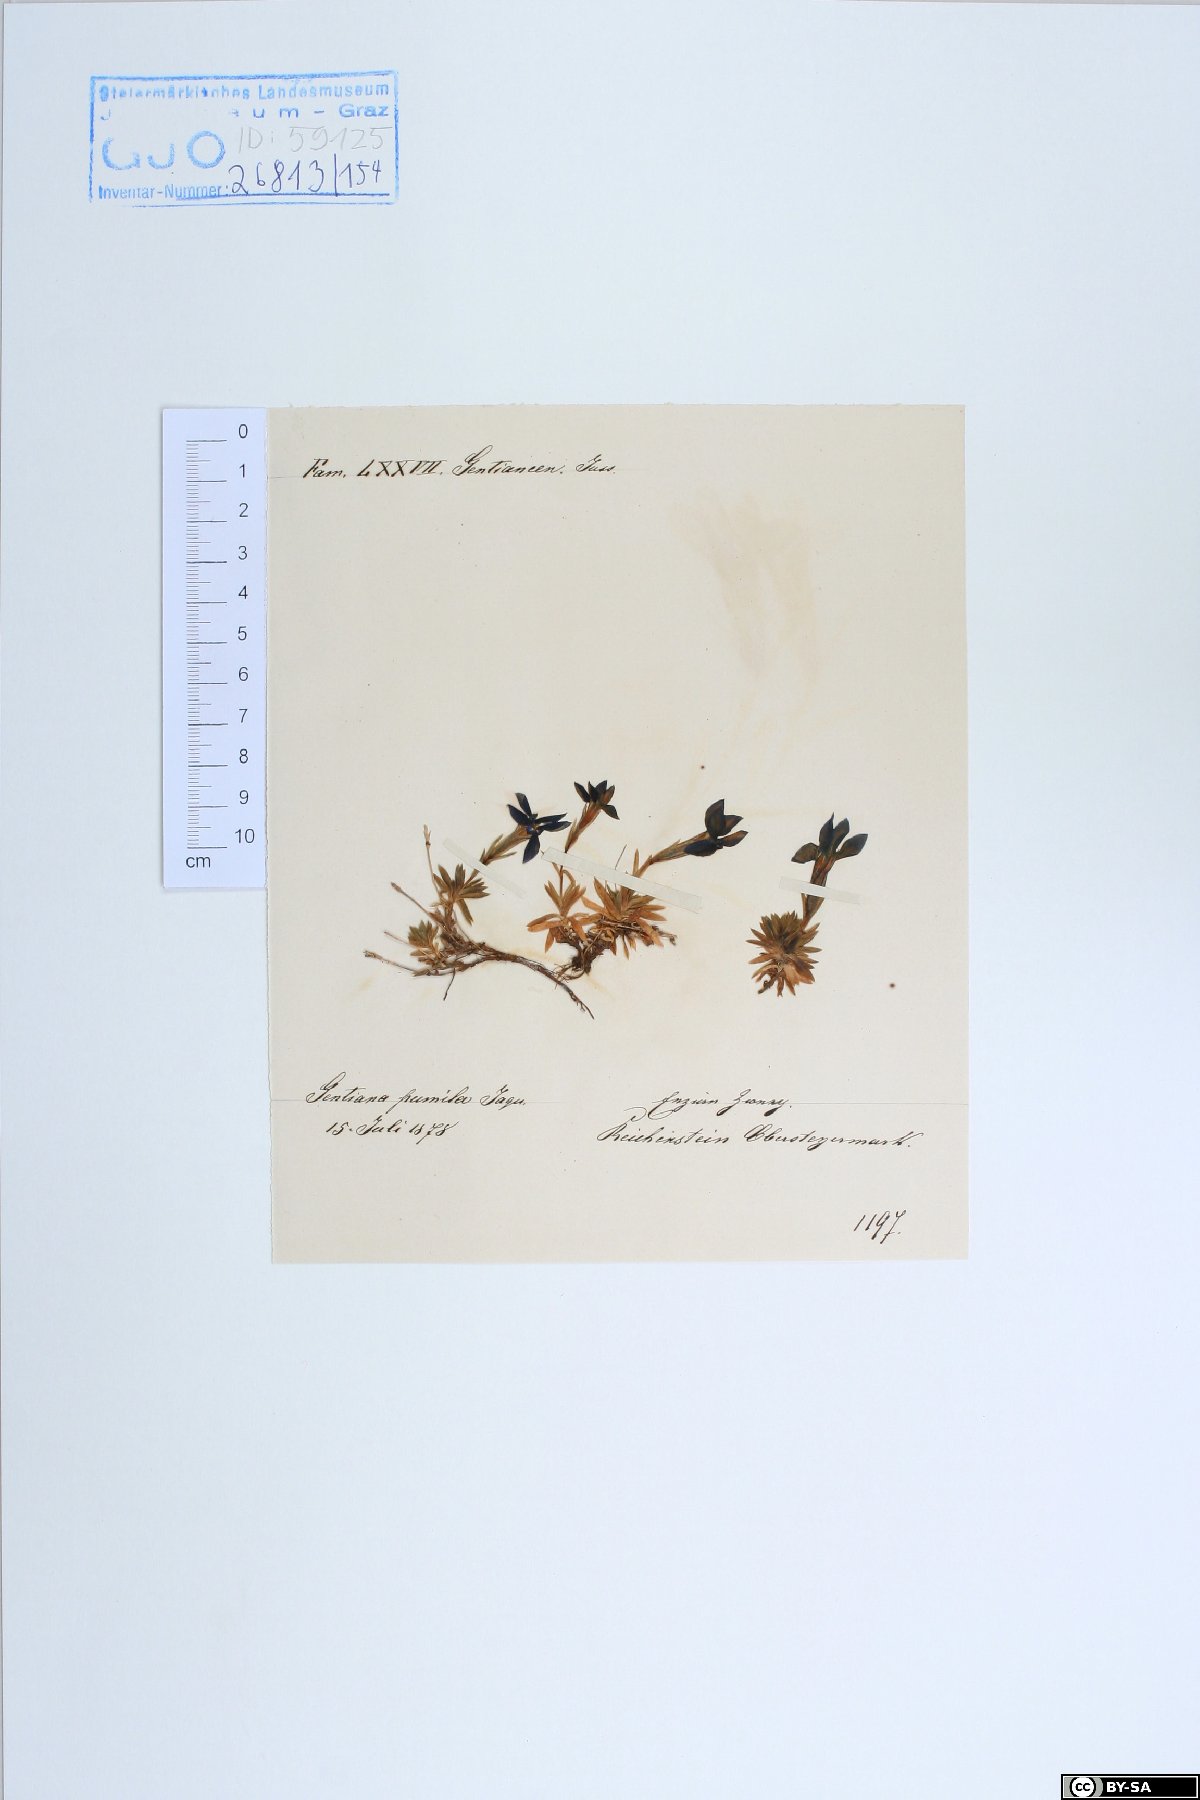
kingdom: Plantae
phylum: Tracheophyta
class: Magnoliopsida
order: Gentianales
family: Gentianaceae
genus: Gentiana
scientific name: Gentiana pumila
